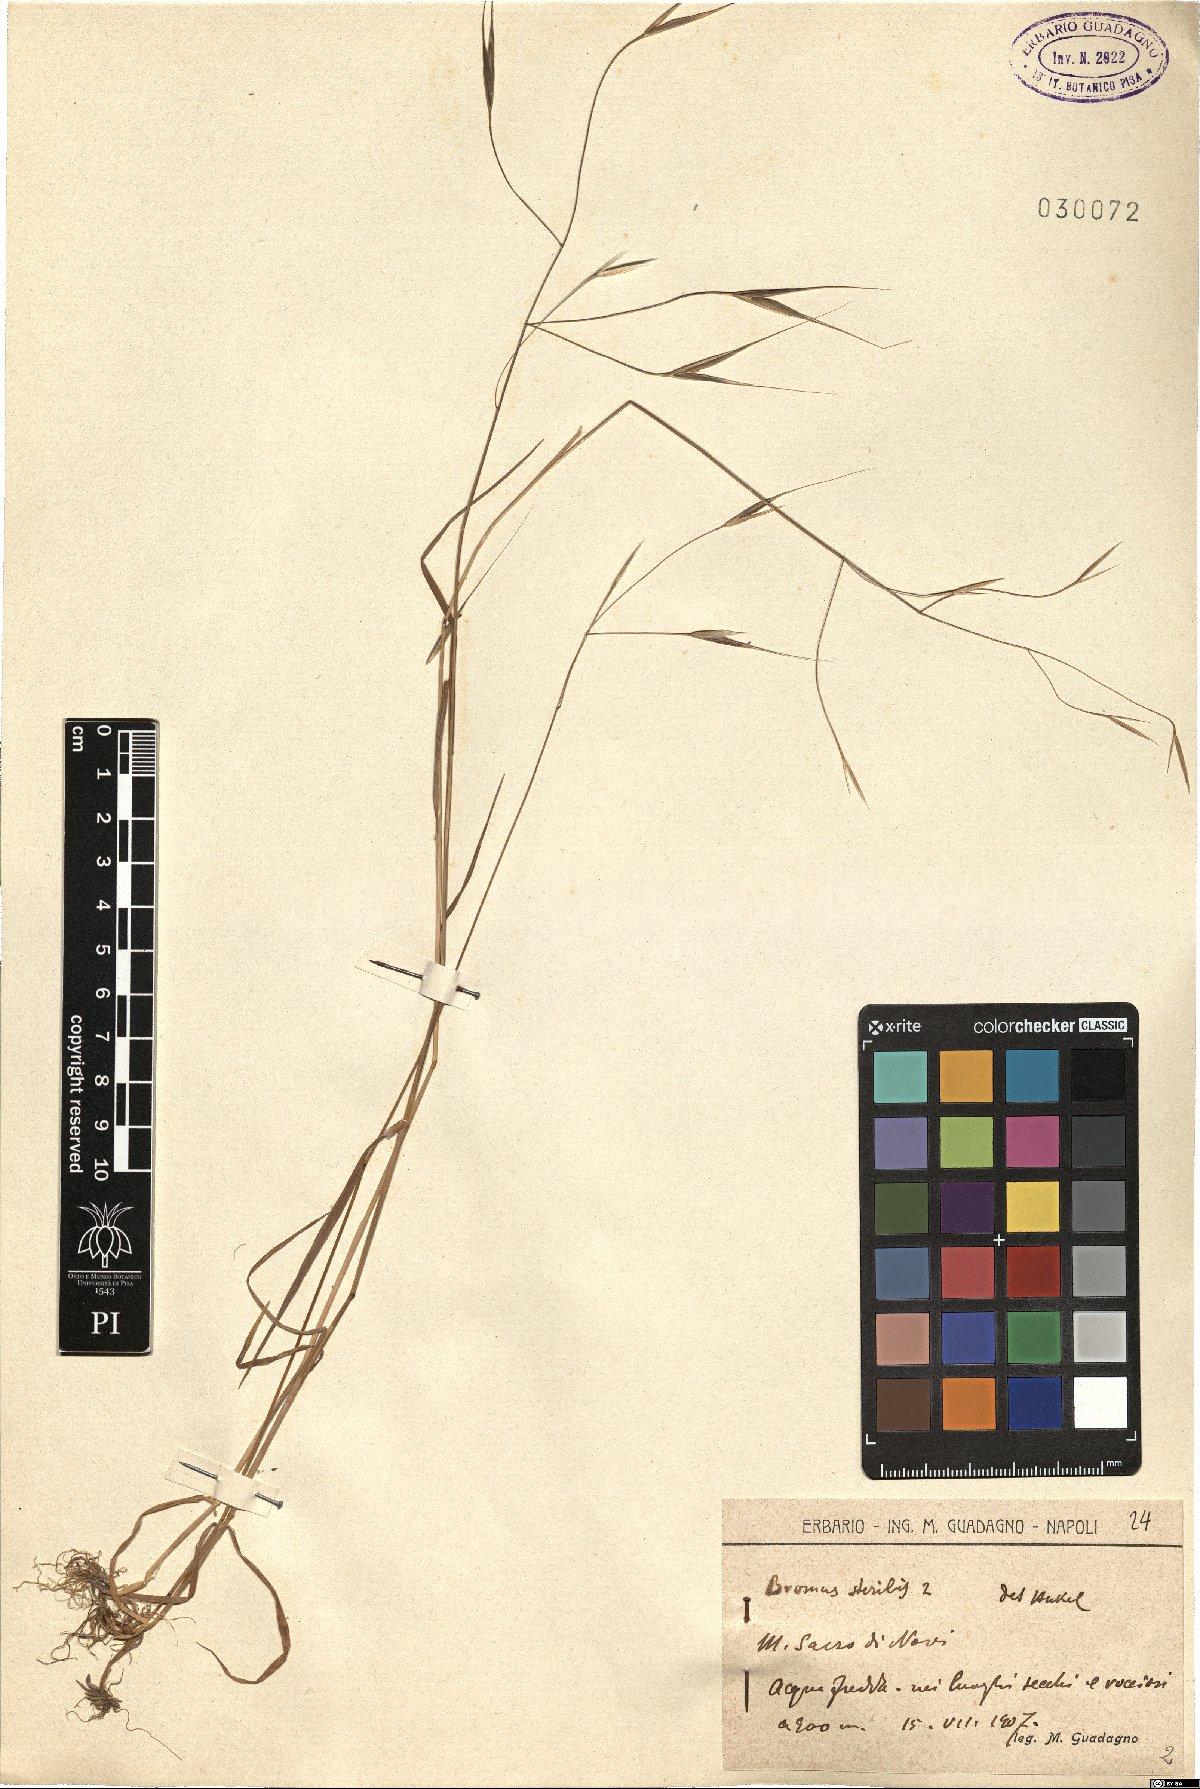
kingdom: Plantae
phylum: Tracheophyta
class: Liliopsida
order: Poales
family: Poaceae
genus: Bromus
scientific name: Bromus sterilis
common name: Poverty brome
